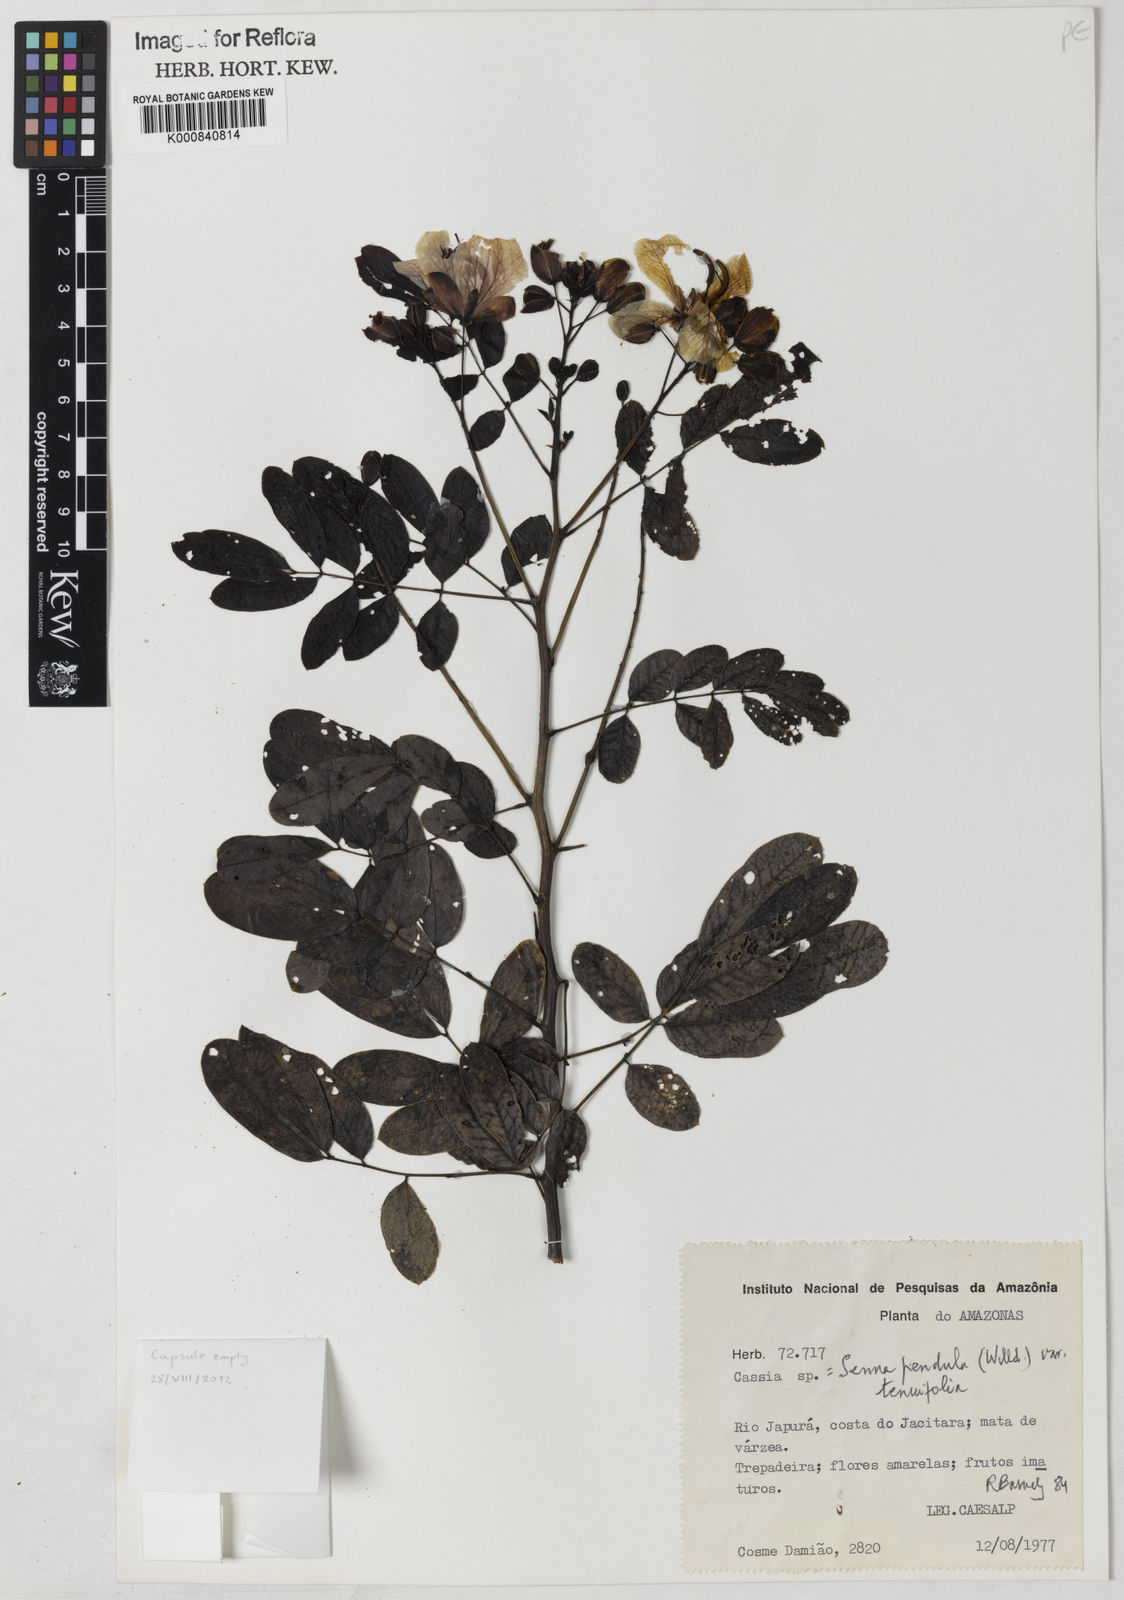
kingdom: Plantae
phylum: Tracheophyta
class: Magnoliopsida
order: Fabales
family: Fabaceae
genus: Senna
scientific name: Senna pendula
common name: Easter cassia
